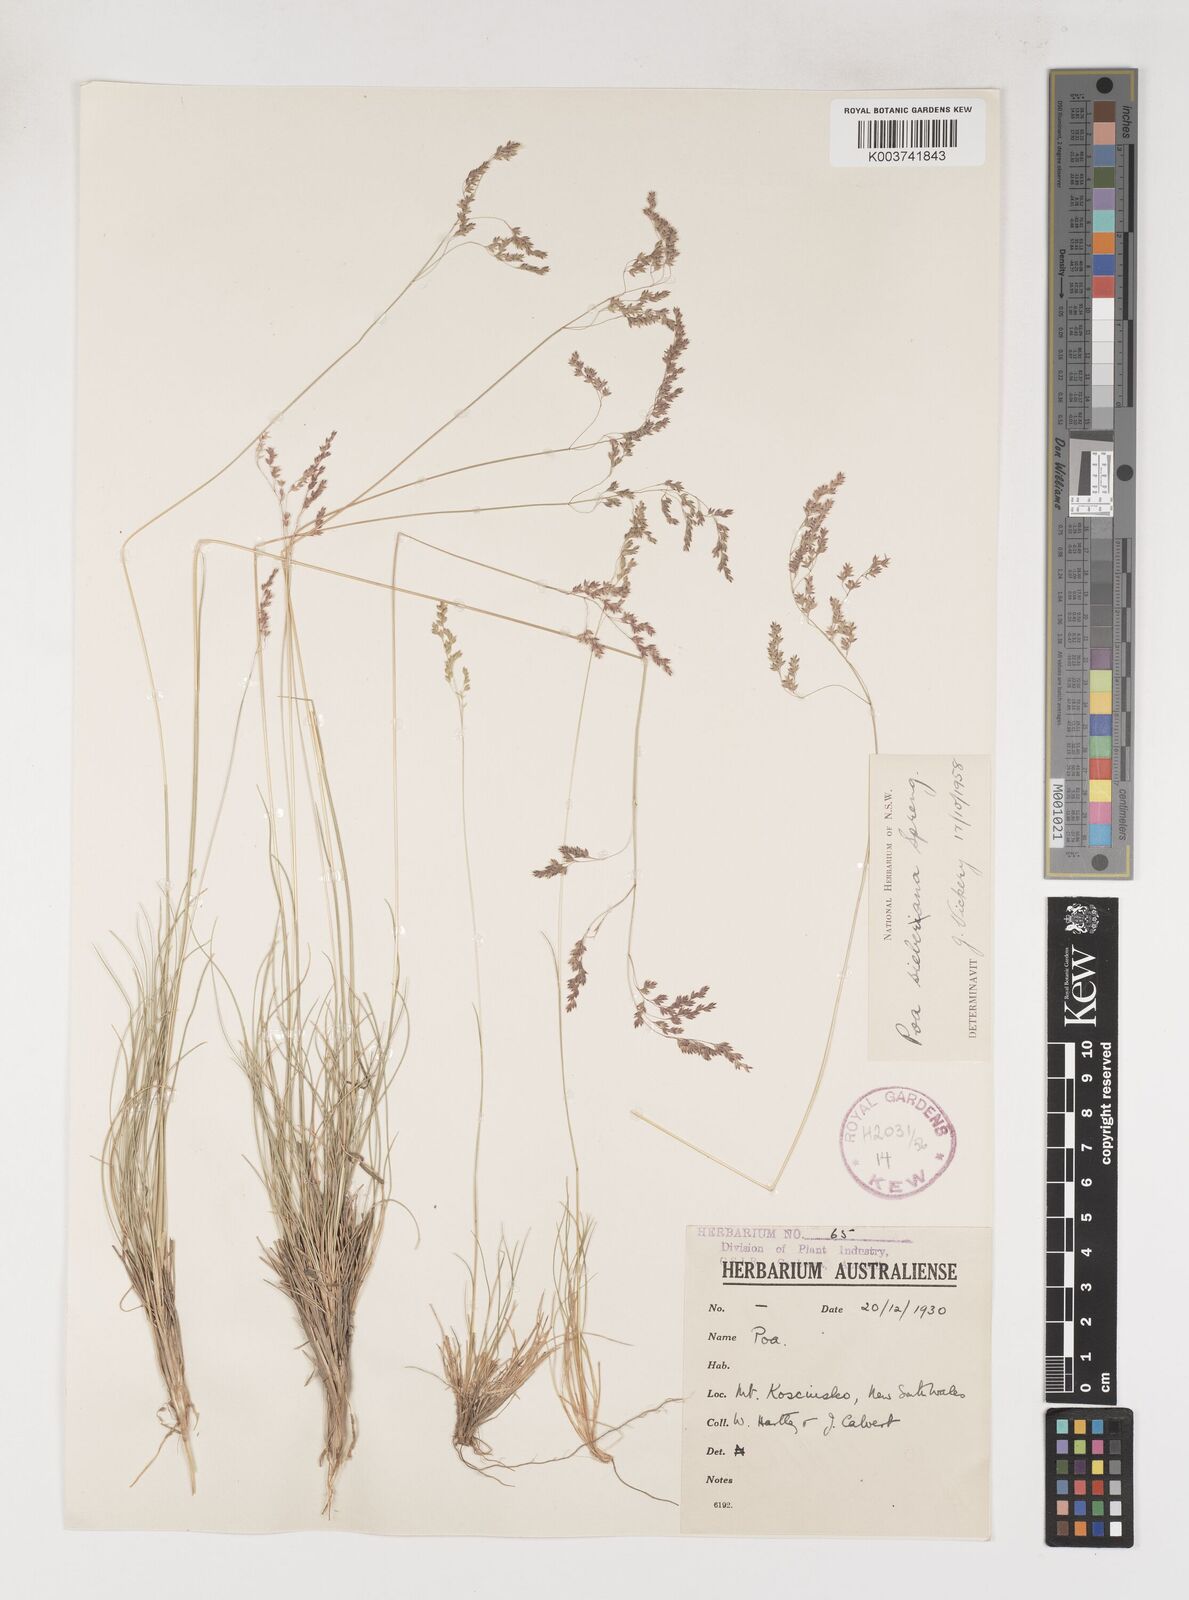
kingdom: Plantae
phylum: Tracheophyta
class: Liliopsida
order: Poales
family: Poaceae
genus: Poa
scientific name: Poa sieberiana
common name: Tussock poa
